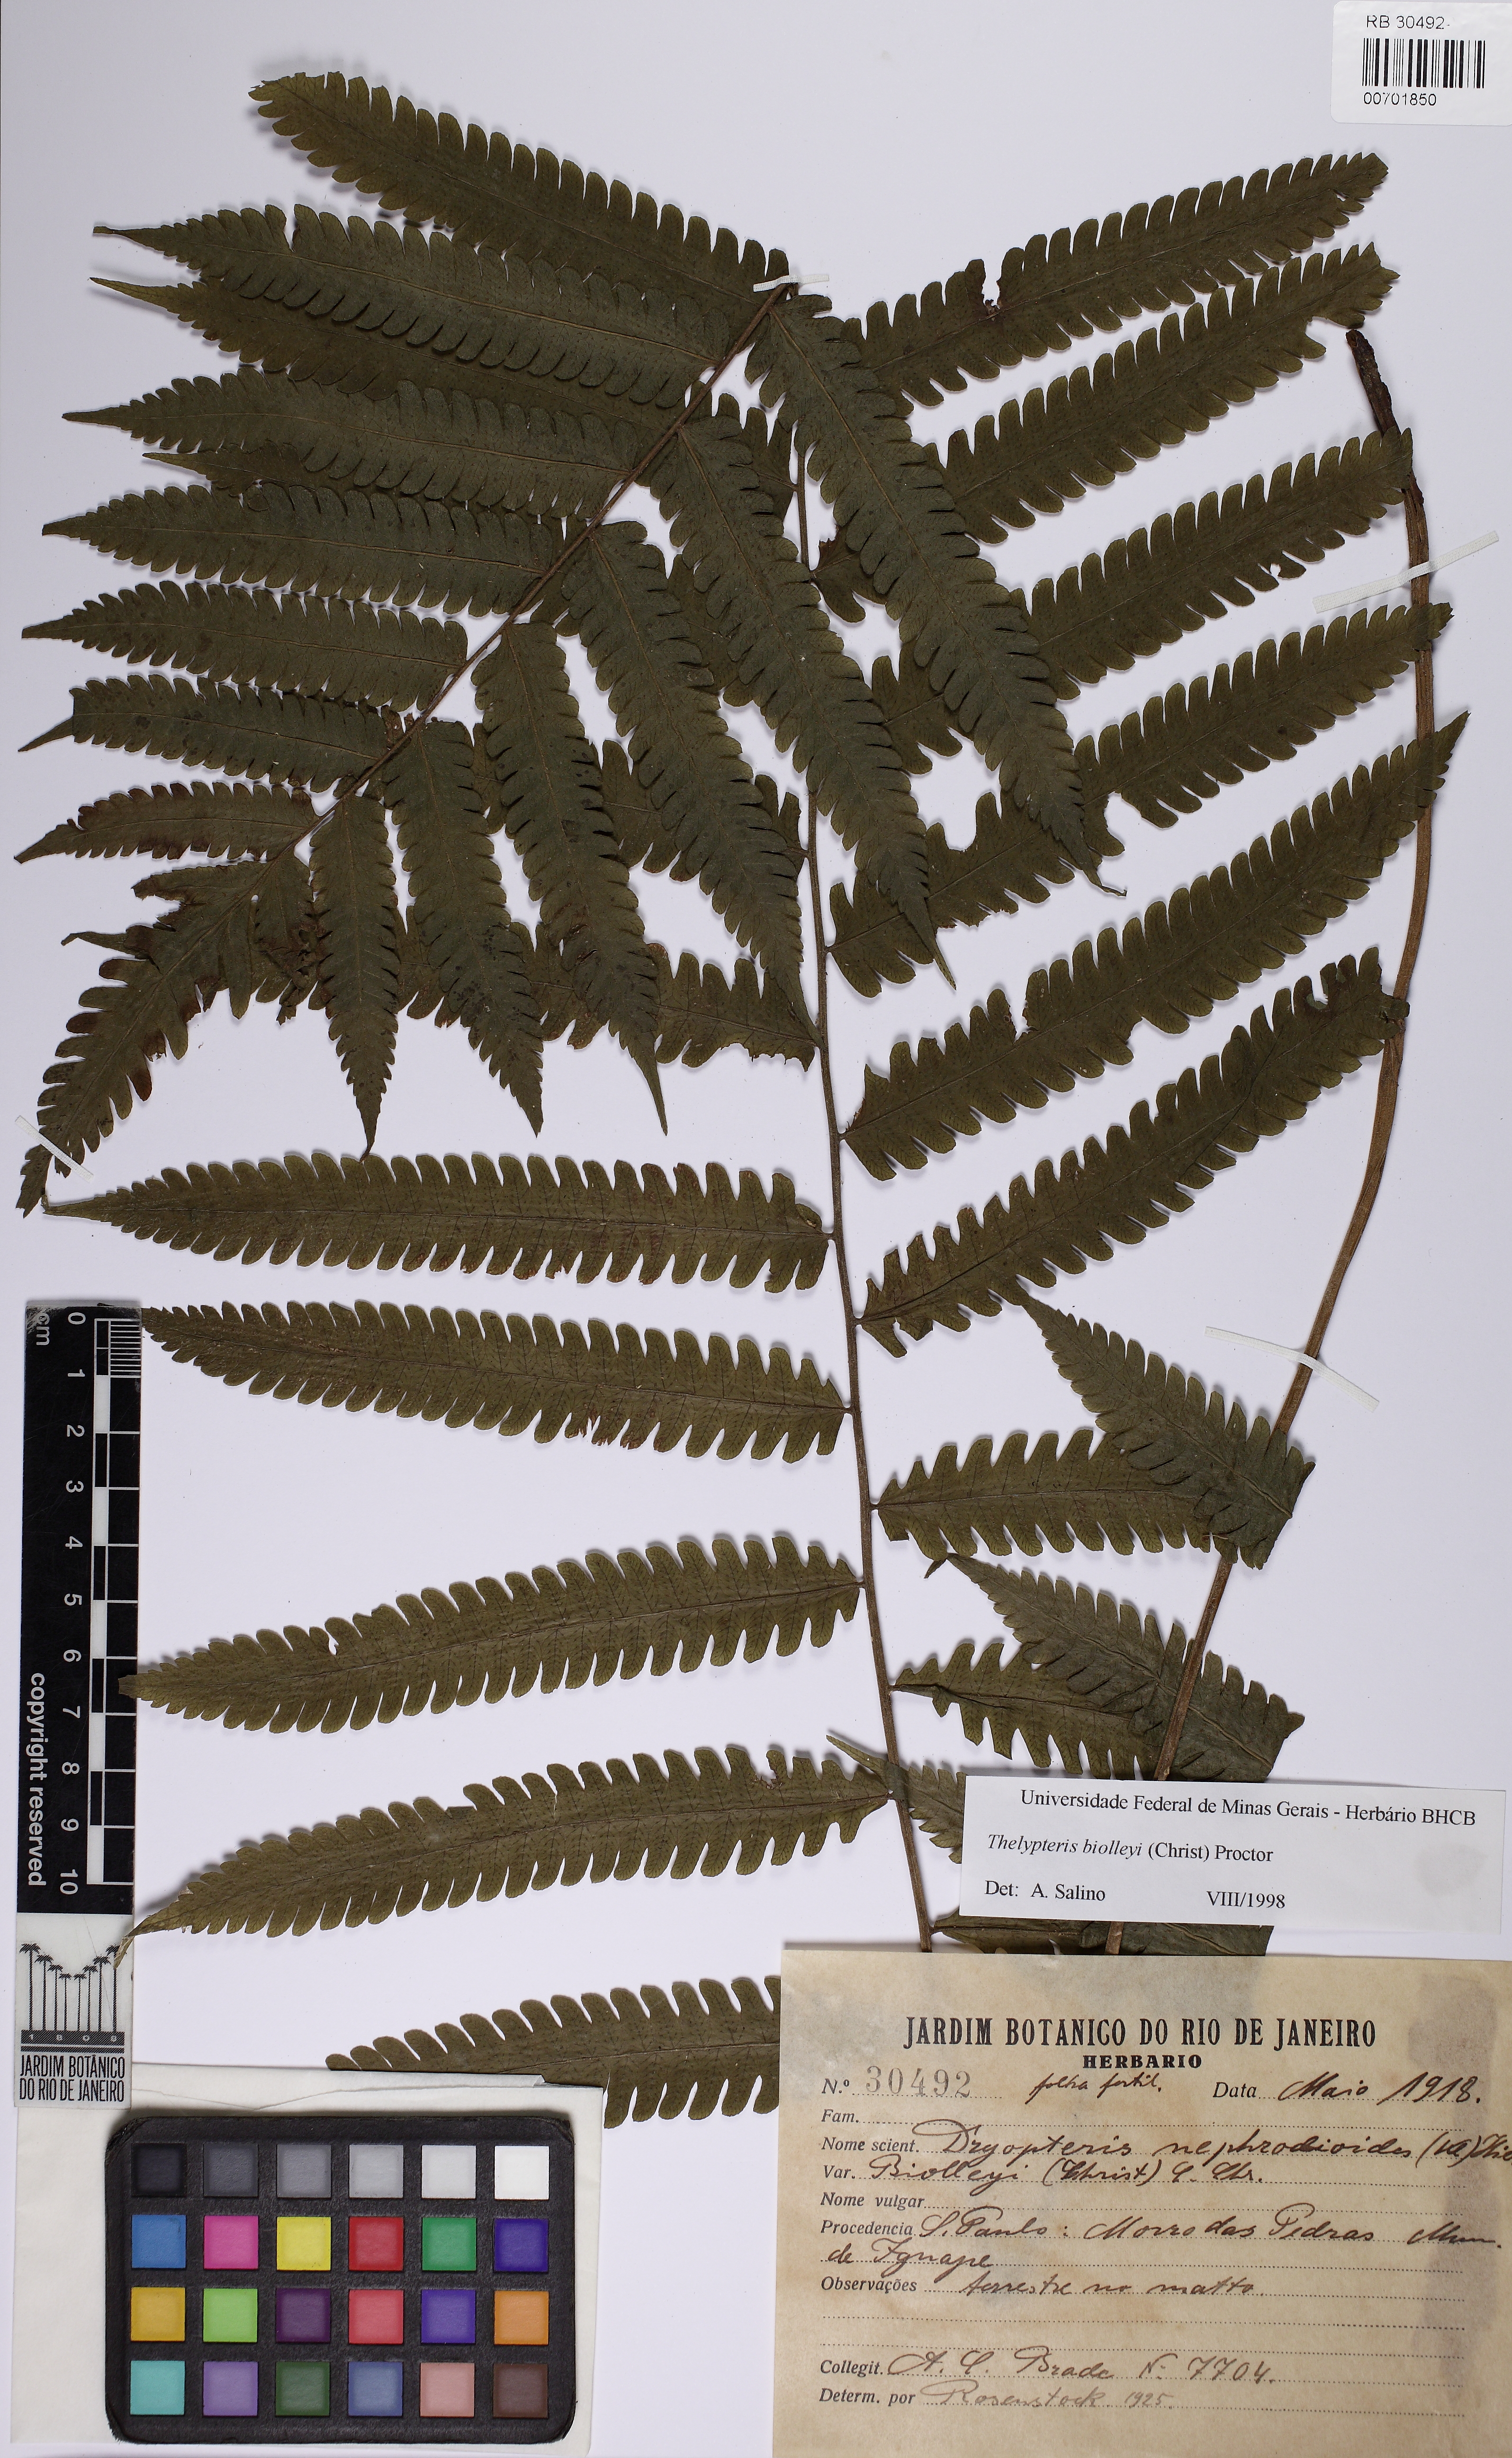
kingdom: Plantae
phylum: Tracheophyta
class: Polypodiopsida
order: Polypodiales
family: Thelypteridaceae
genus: Goniopteris
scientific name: Goniopteris biolleyi
